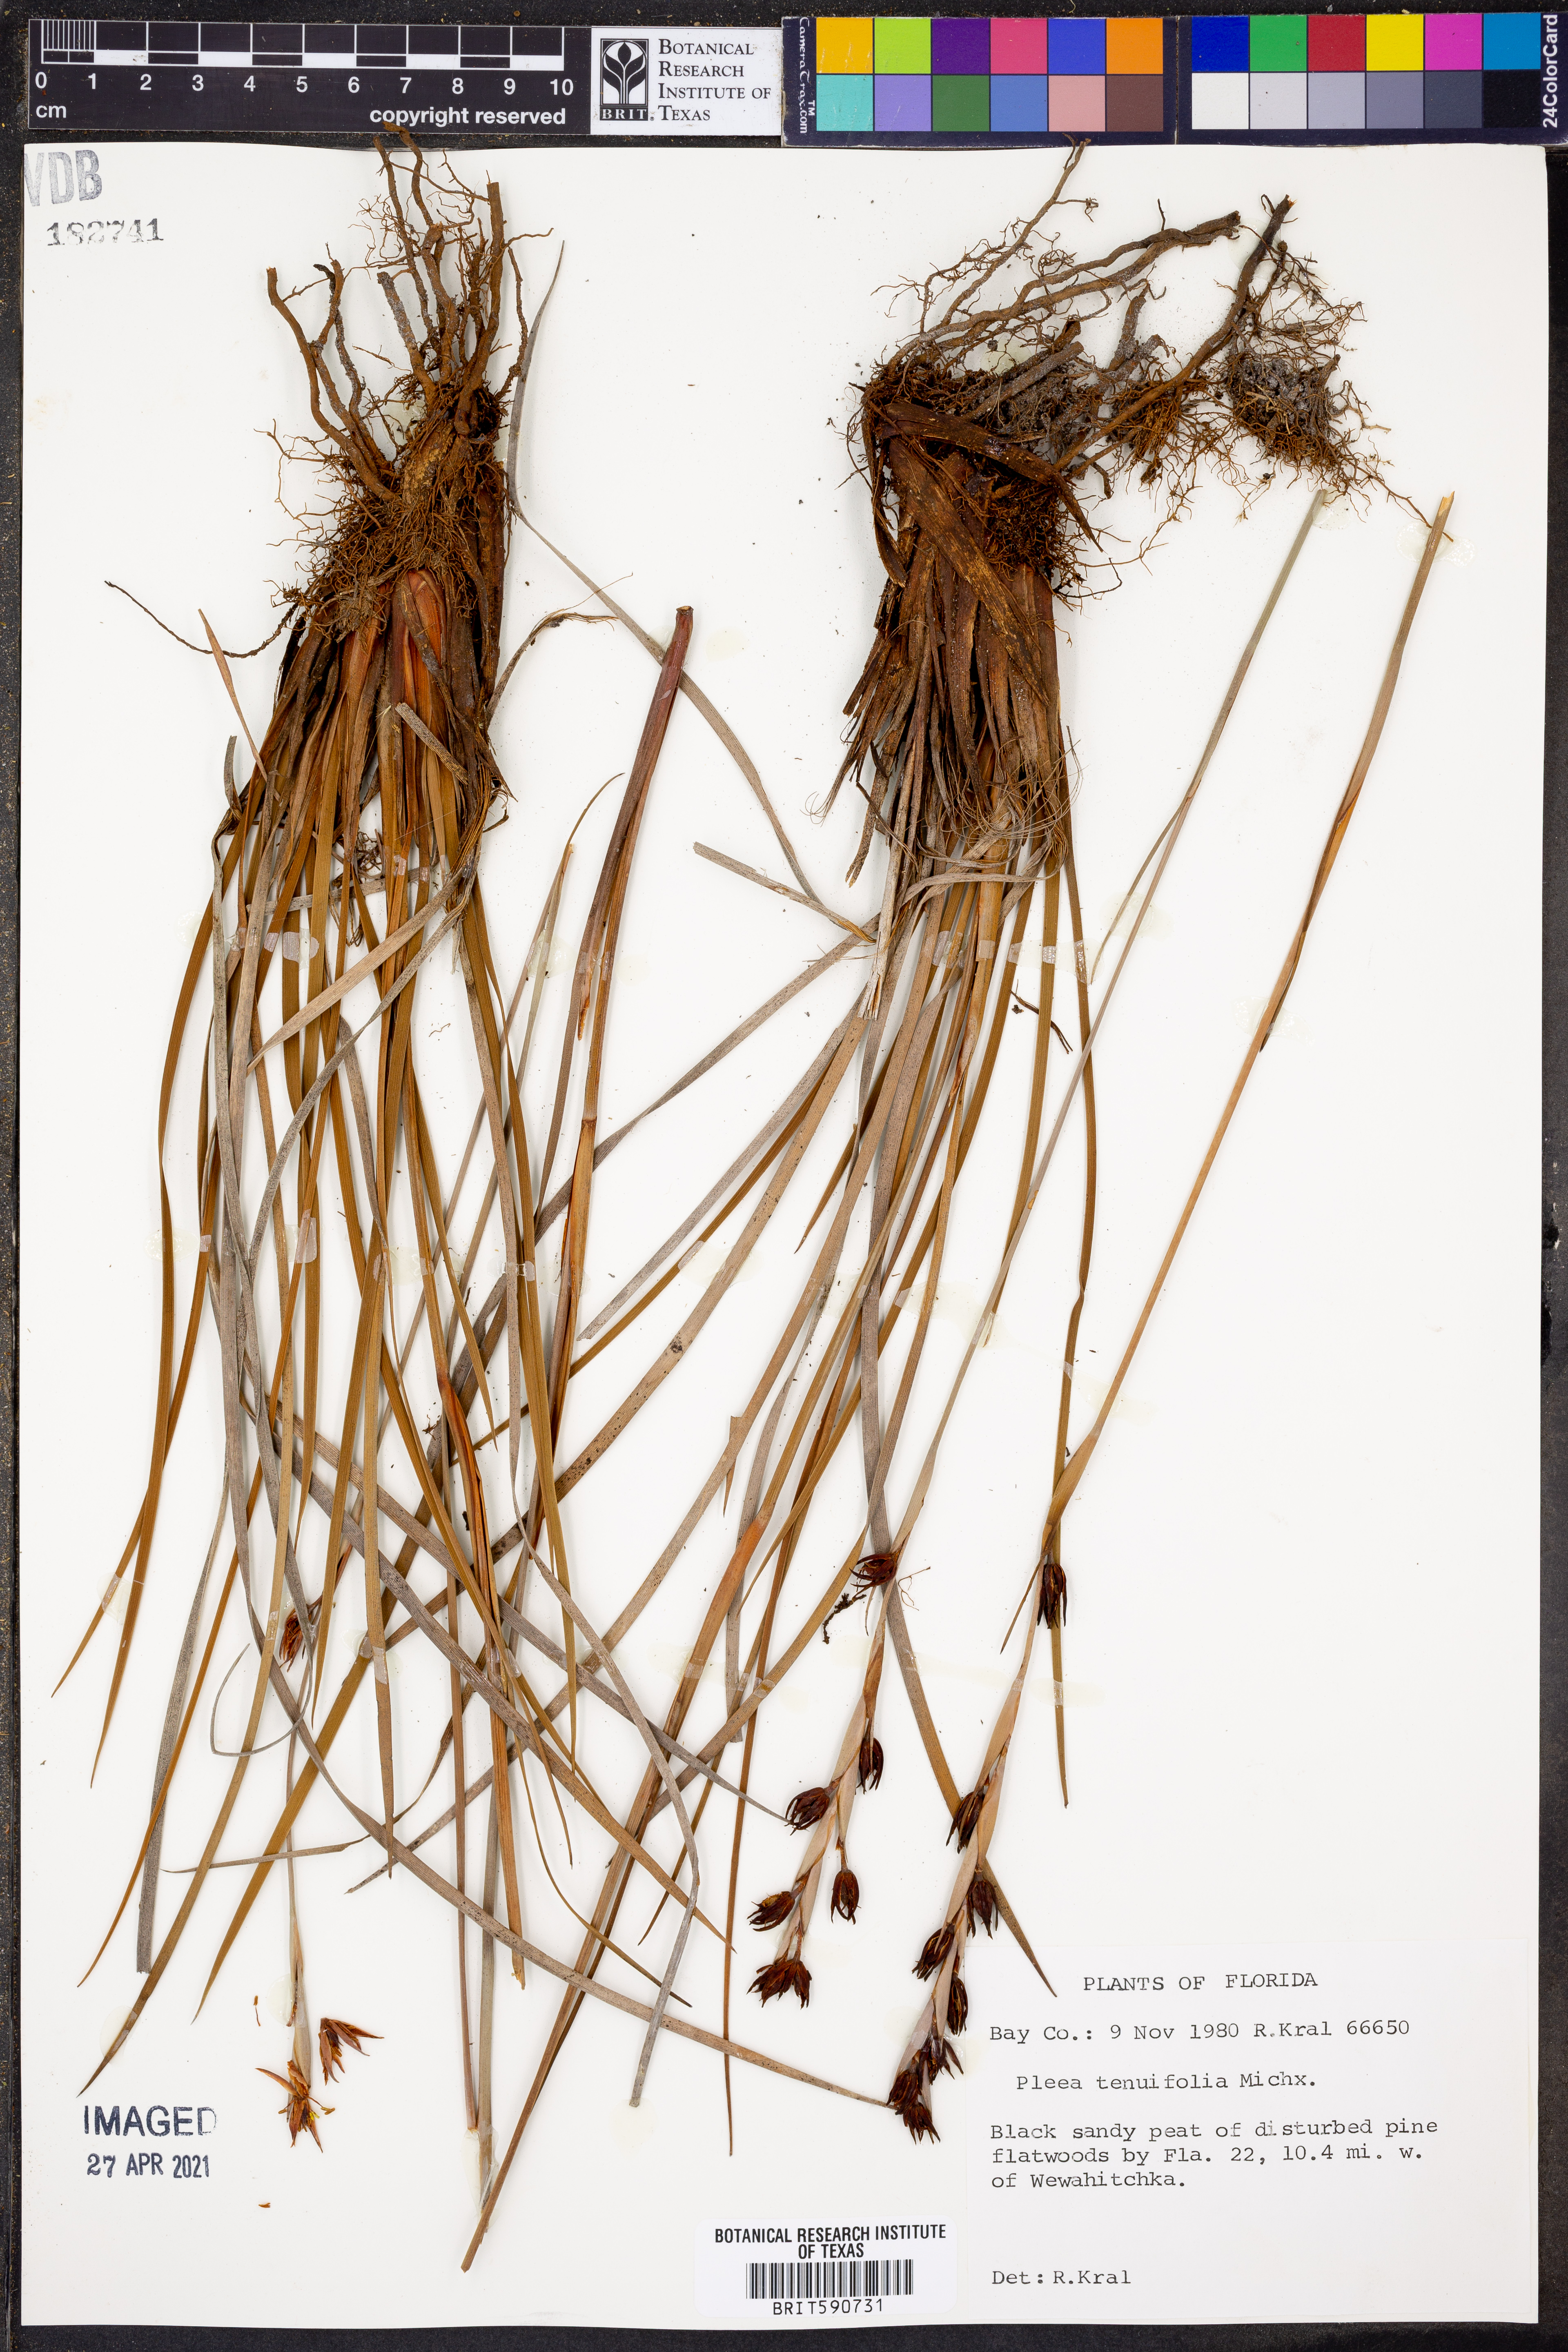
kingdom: Plantae
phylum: Tracheophyta
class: Liliopsida
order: Alismatales
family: Tofieldiaceae
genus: Pleea
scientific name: Pleea tenuifolia
